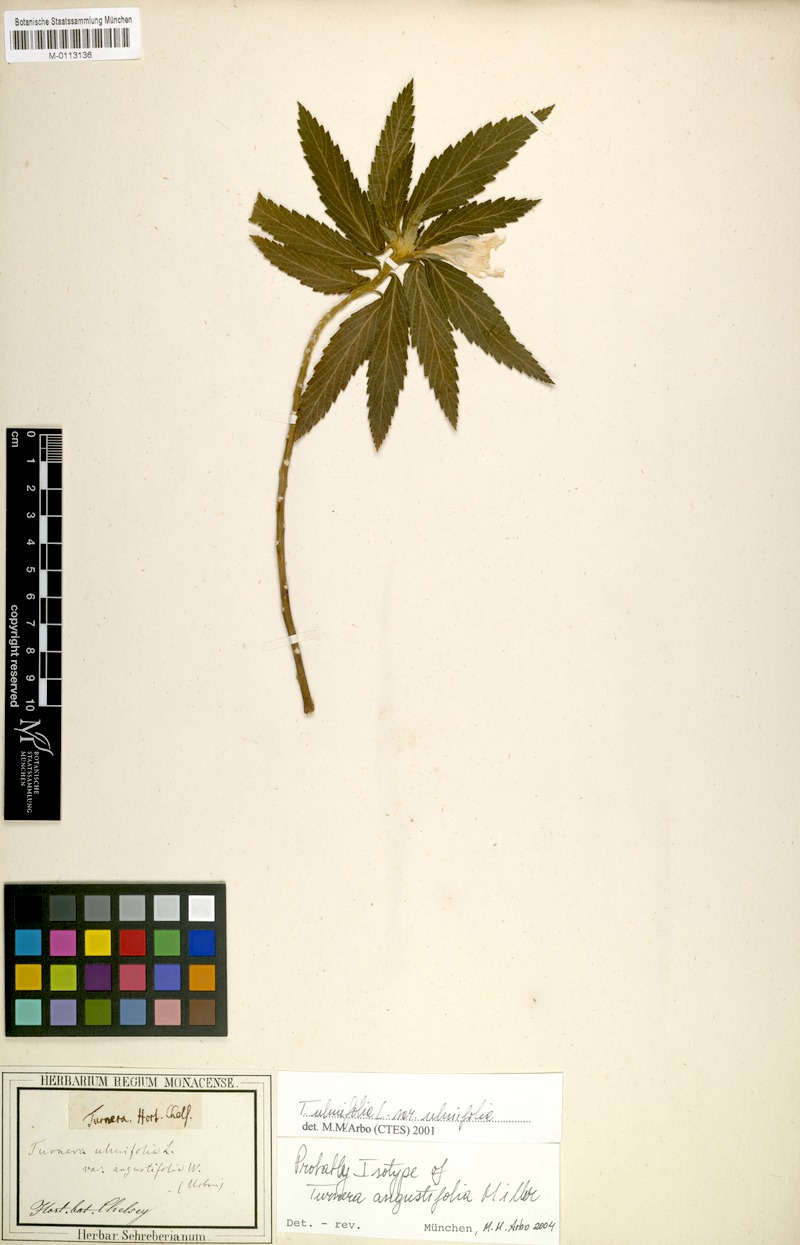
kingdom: Plantae
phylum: Tracheophyta
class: Magnoliopsida
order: Malpighiales
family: Turneraceae
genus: Turnera
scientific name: Turnera ulmifolia
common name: Ramgoat dashalong
